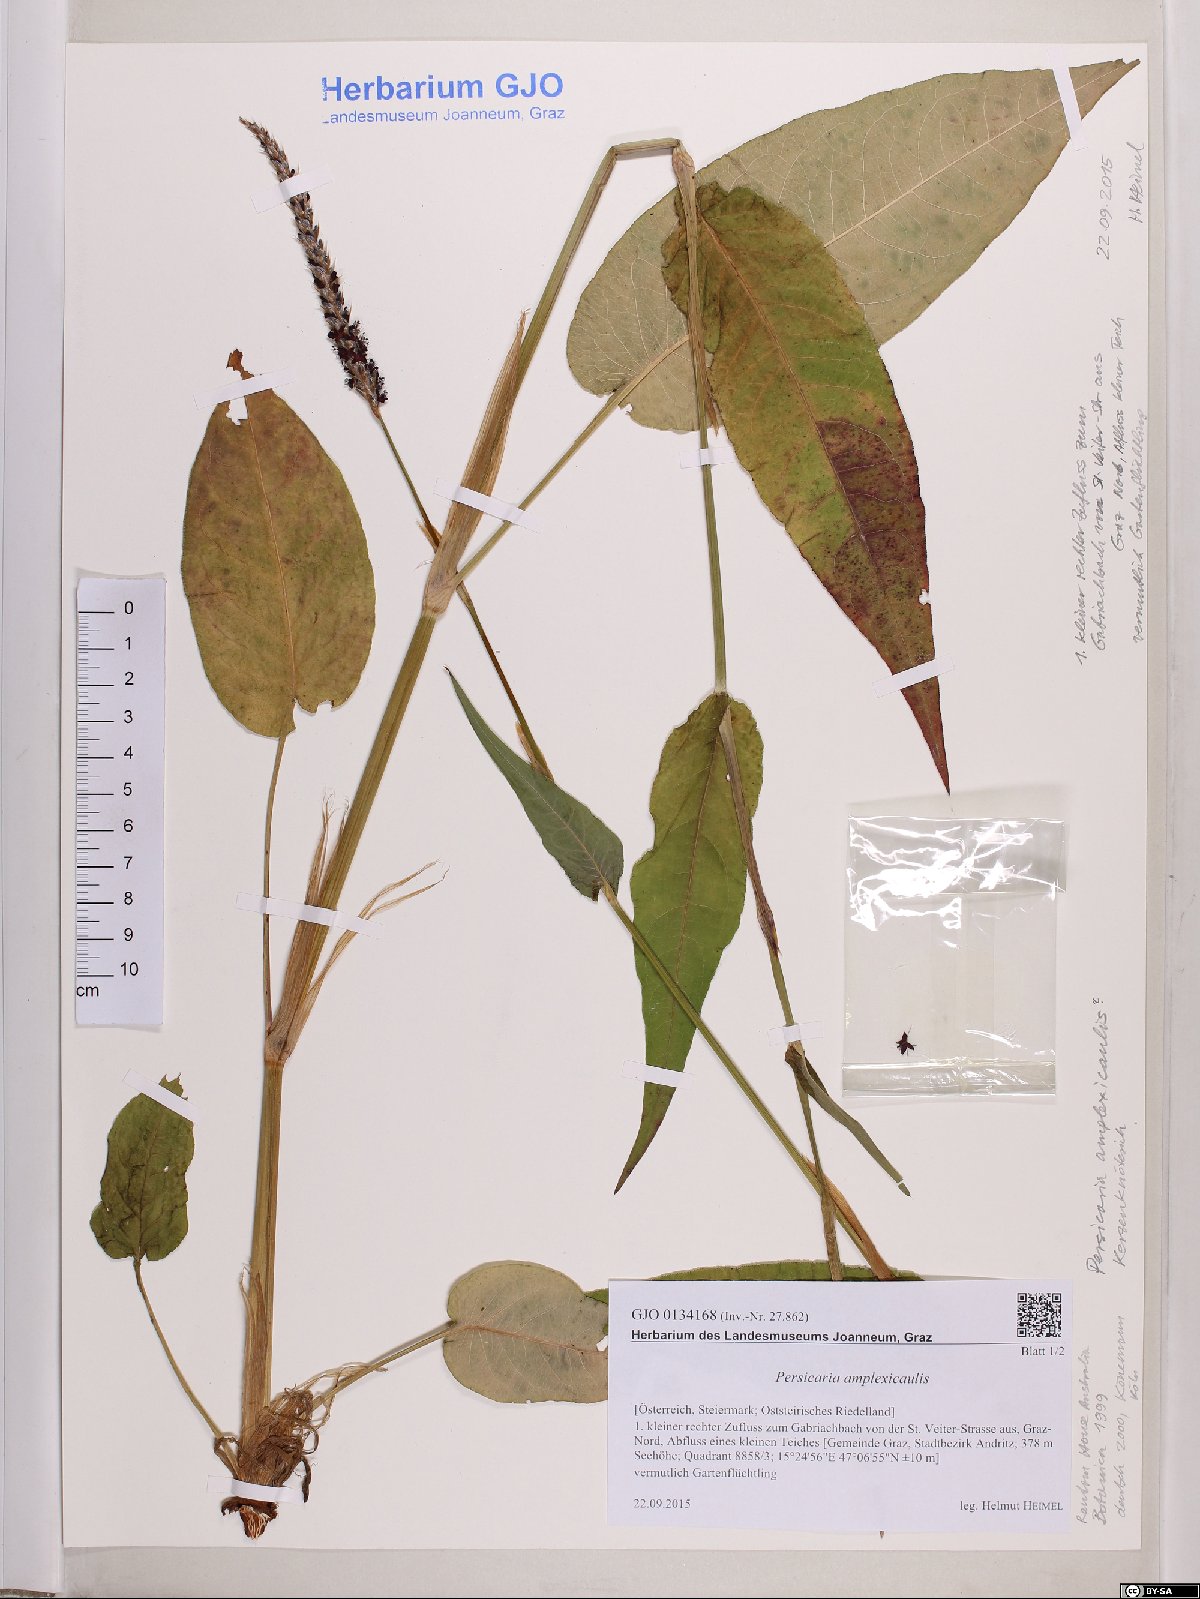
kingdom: Plantae
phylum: Tracheophyta
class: Magnoliopsida
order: Caryophyllales
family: Polygonaceae
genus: Bistorta
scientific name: Bistorta amplexicaulis
